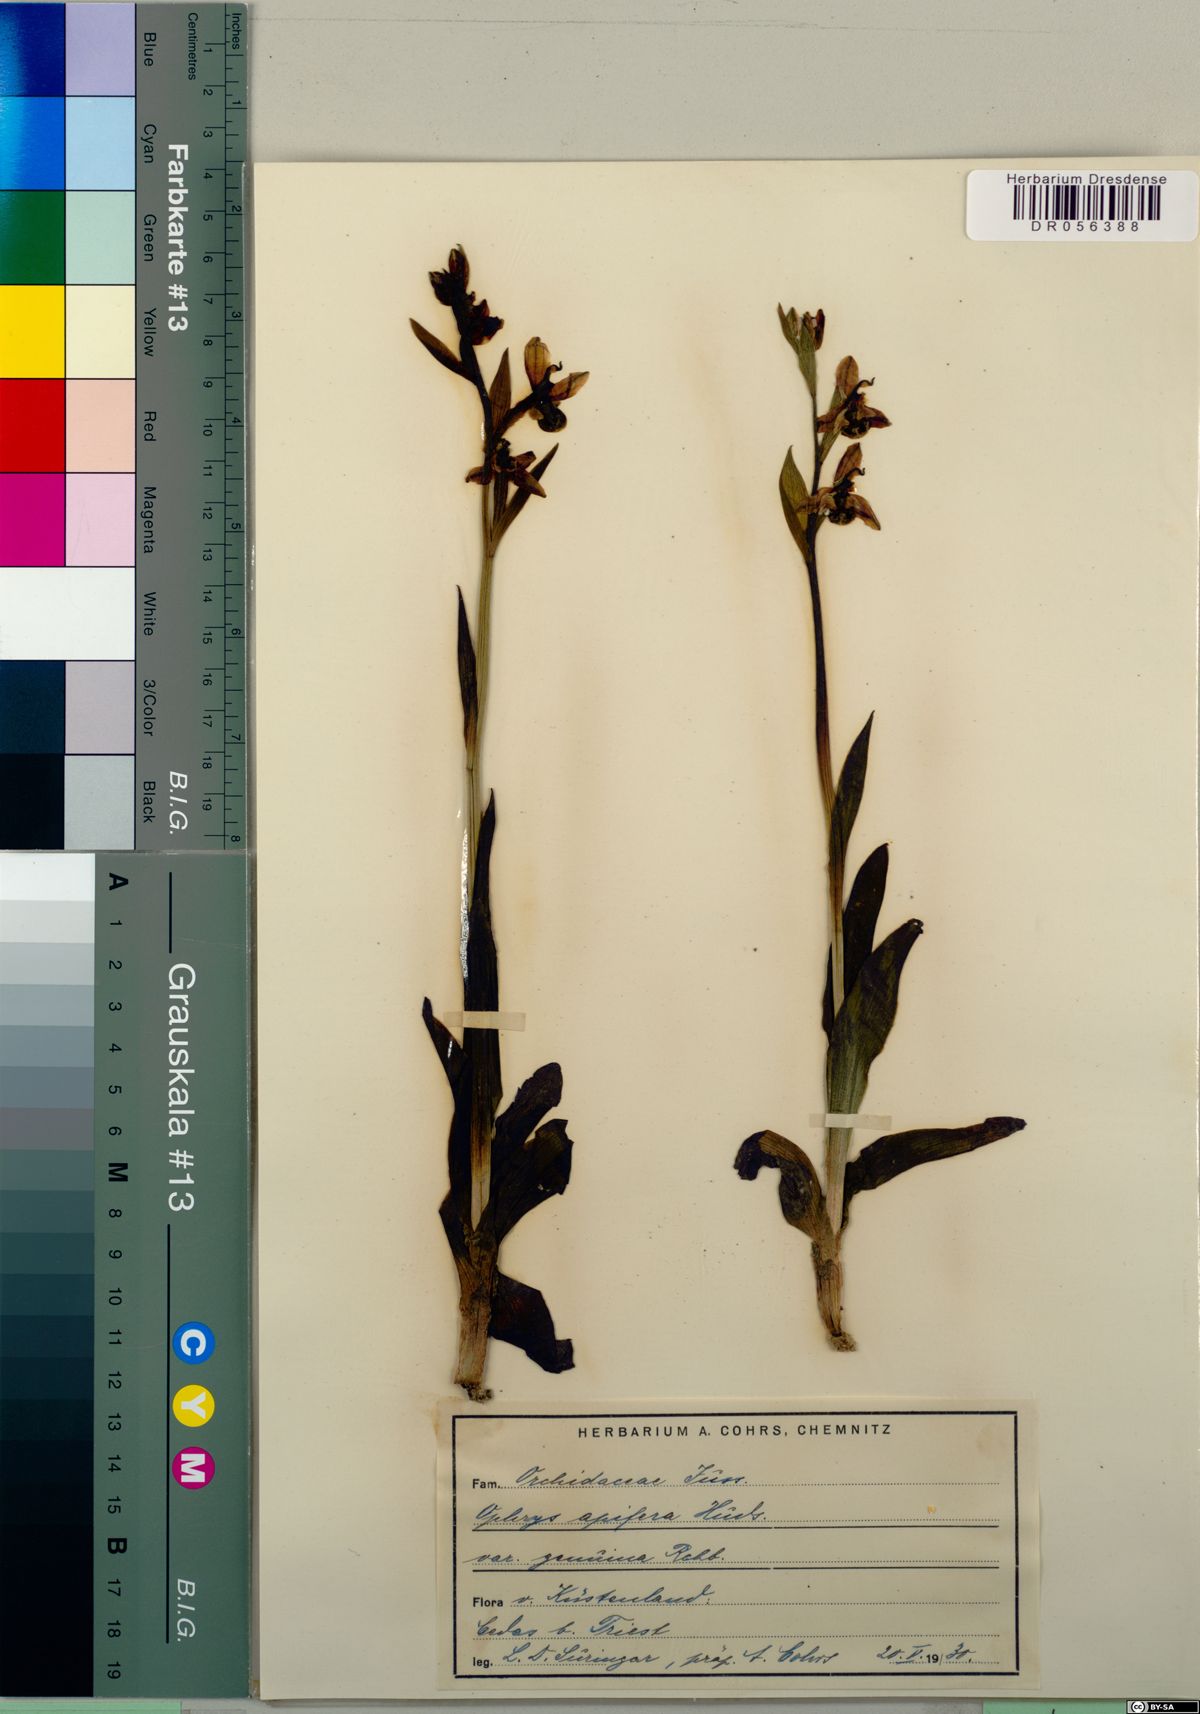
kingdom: Plantae
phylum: Tracheophyta
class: Liliopsida
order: Asparagales
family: Orchidaceae
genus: Ophrys
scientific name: Ophrys apifera
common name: Bee orchid
